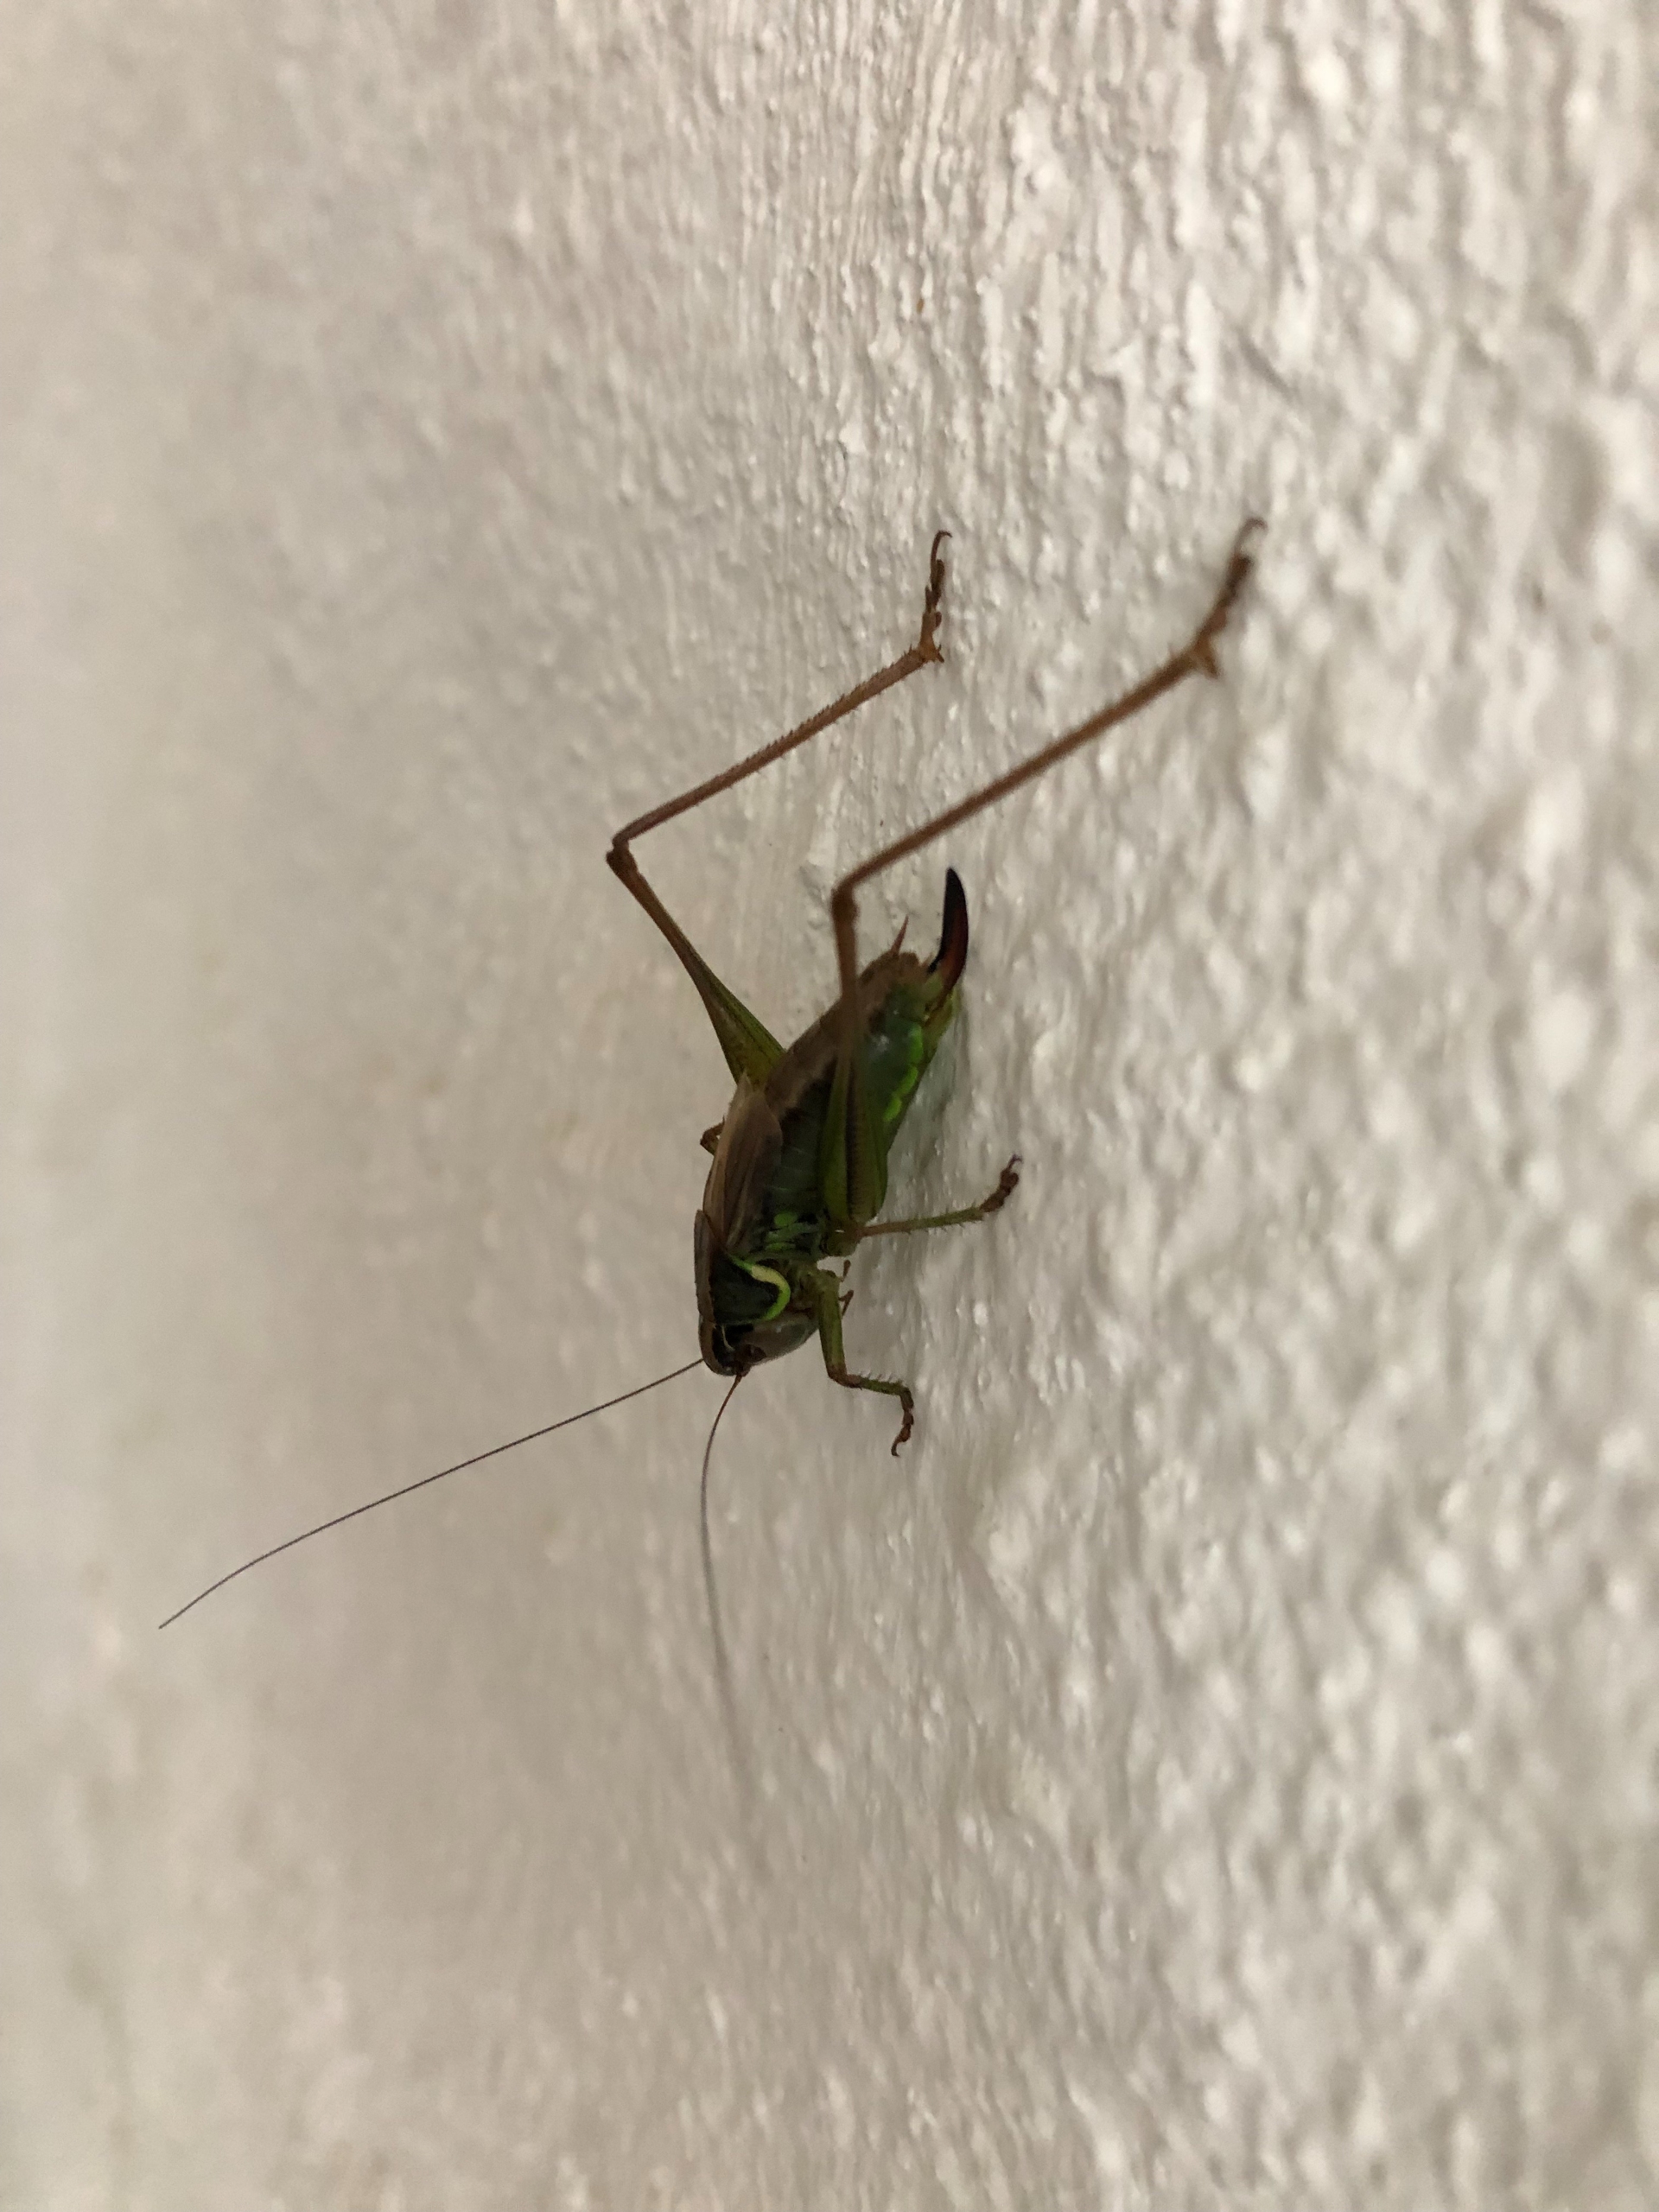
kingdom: Animalia
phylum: Arthropoda
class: Insecta
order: Orthoptera
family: Tettigoniidae
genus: Roeseliana
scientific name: Roeseliana roeselii
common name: Cikadegræshoppe
